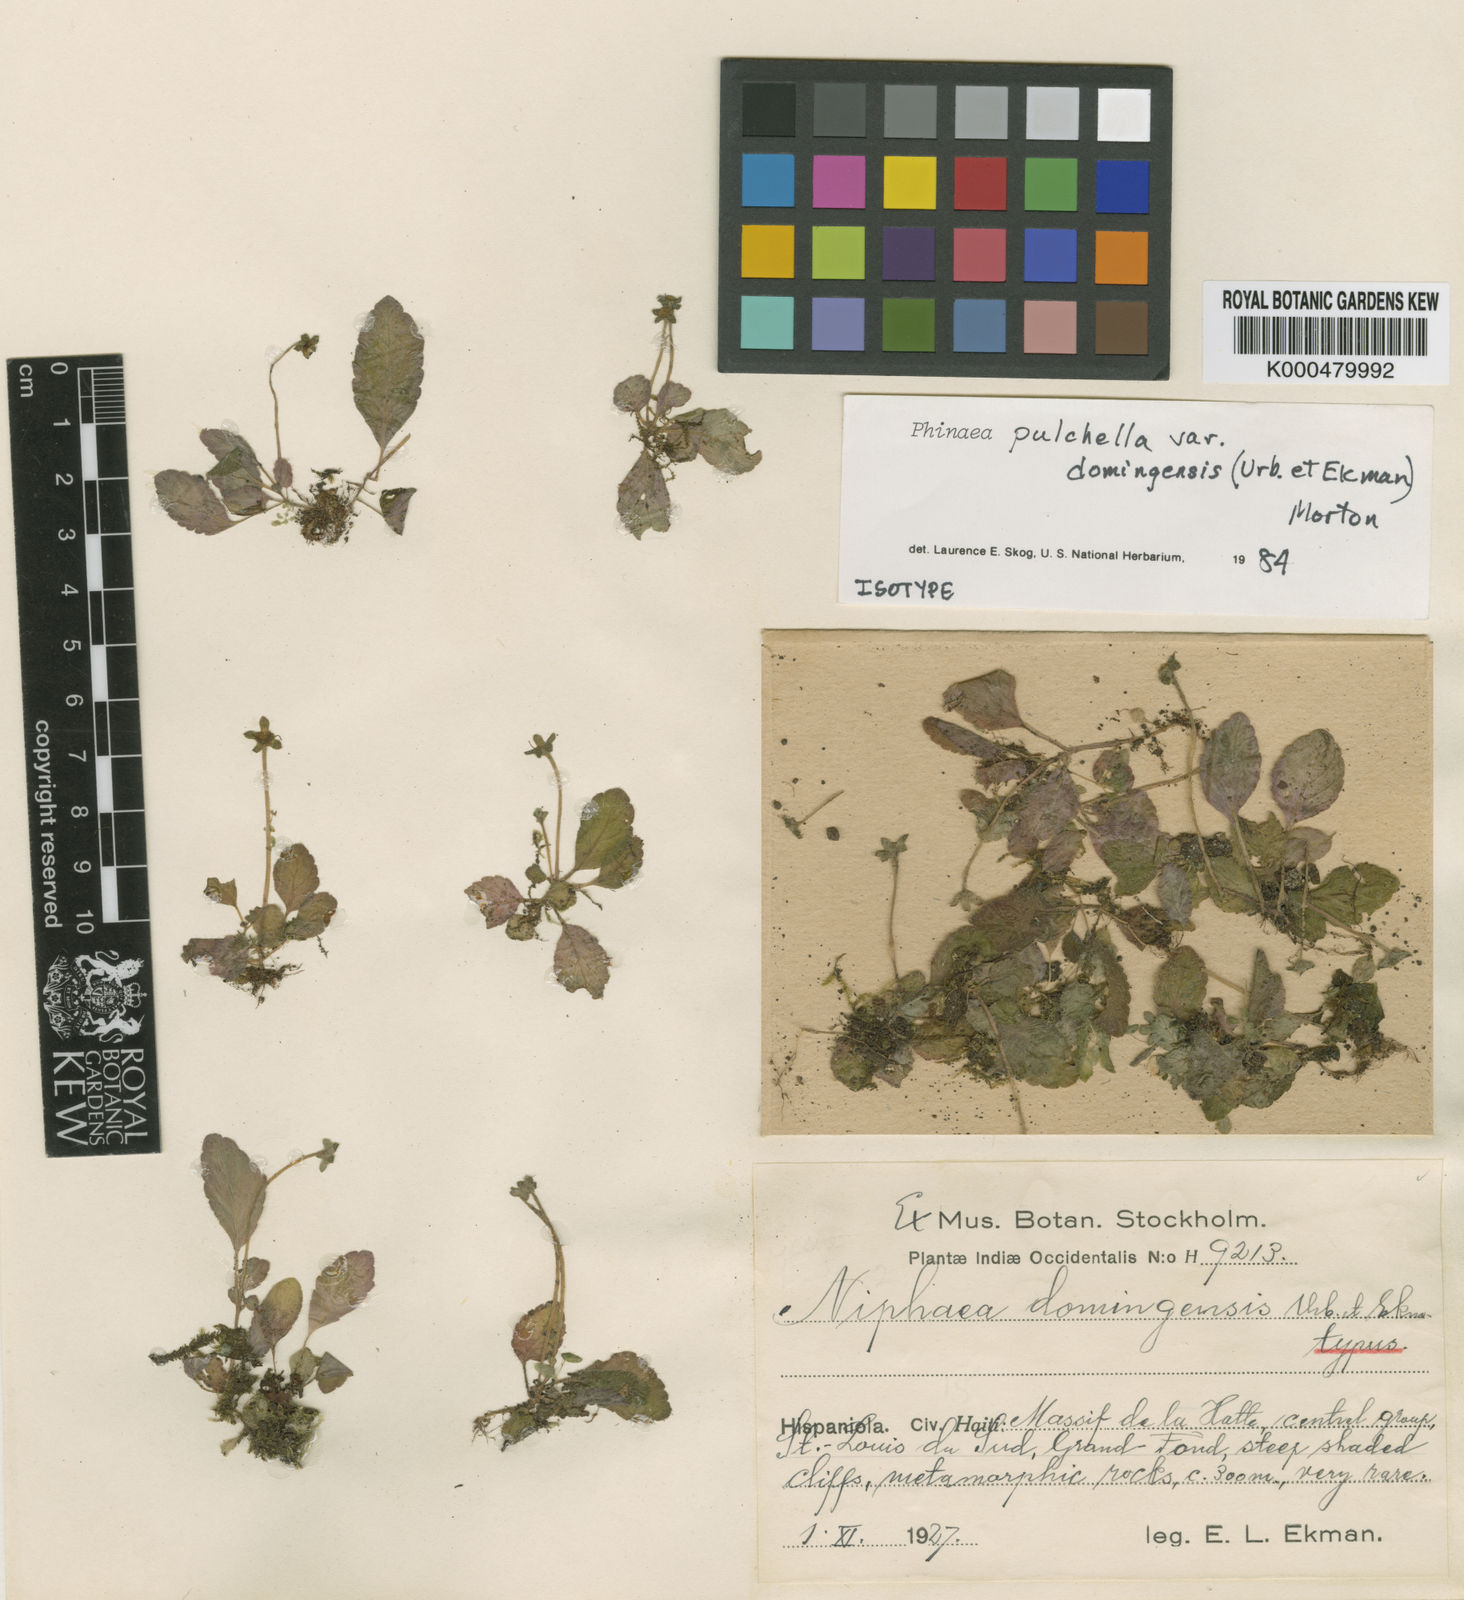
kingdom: Plantae
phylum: Tracheophyta
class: Magnoliopsida
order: Lamiales
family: Gesneriaceae
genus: Phinaea
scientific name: Phinaea pulchella
